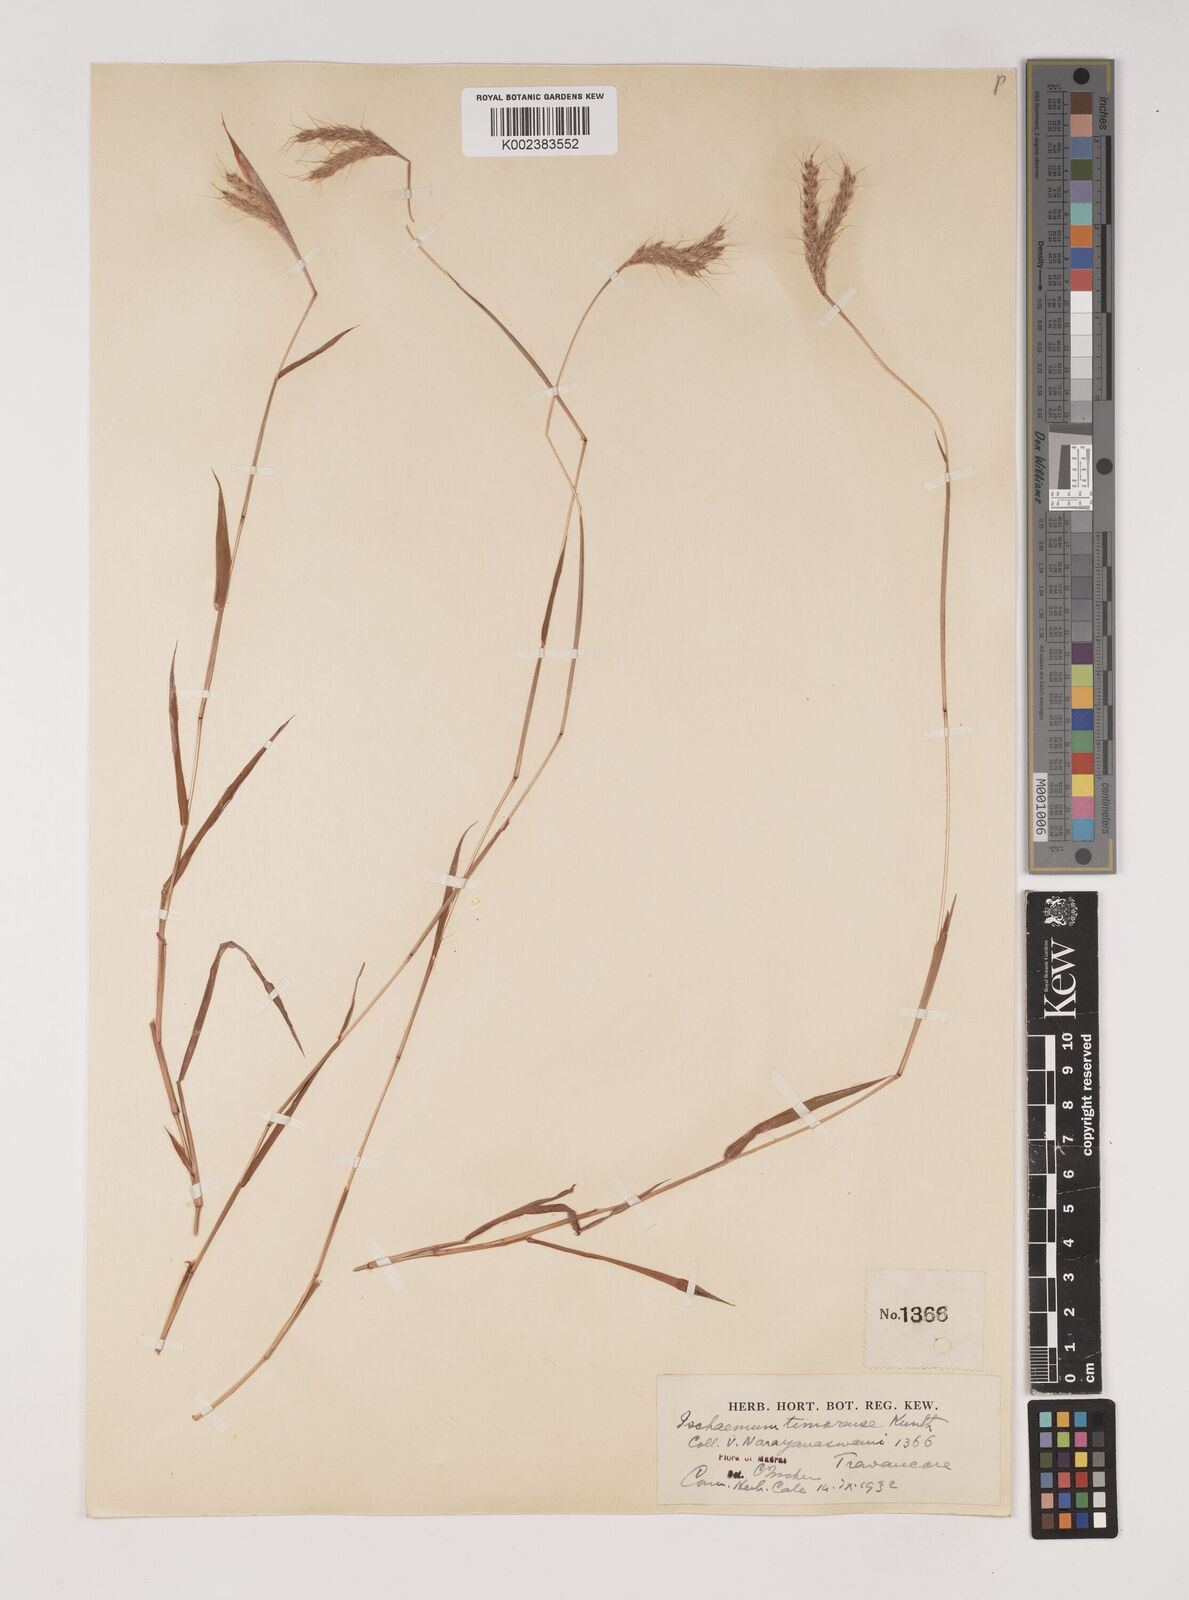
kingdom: Plantae
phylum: Tracheophyta
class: Liliopsida
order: Poales
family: Poaceae
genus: Ischaemum
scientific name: Ischaemum timorense
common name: Stalkleaf murainagrass
